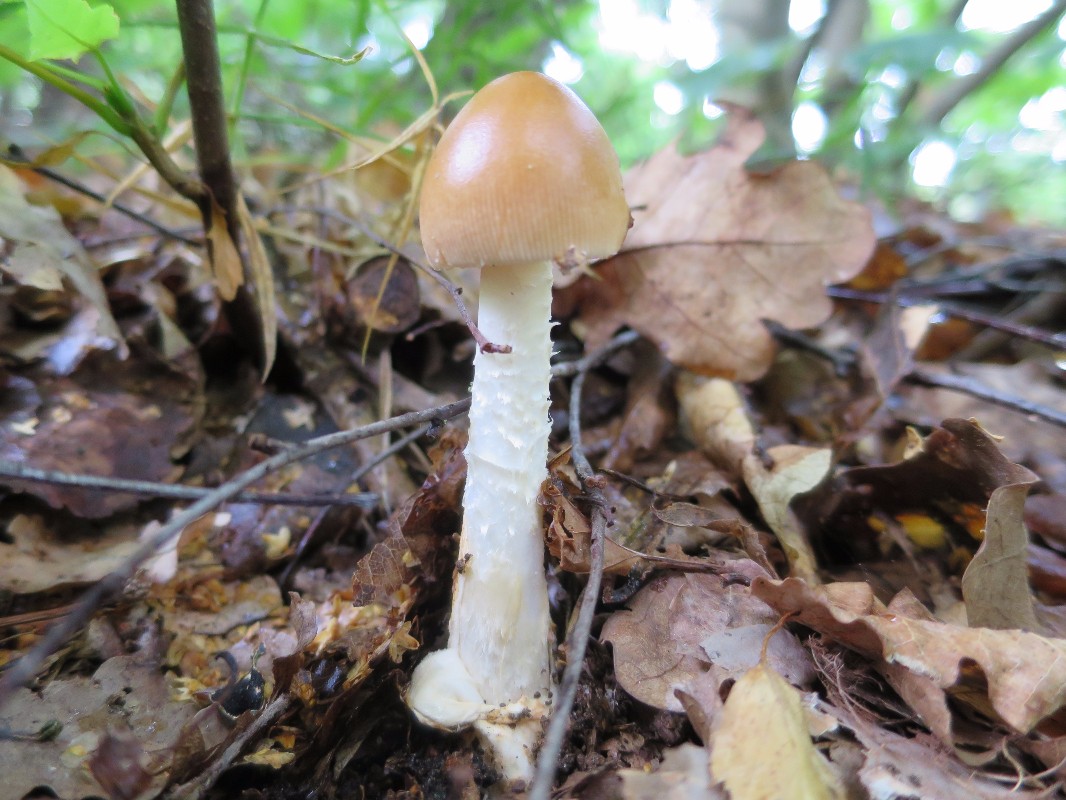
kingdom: Fungi
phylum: Basidiomycota
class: Agaricomycetes
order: Agaricales
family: Amanitaceae
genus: Amanita
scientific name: Amanita fulva
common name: brun kam-fluesvamp
